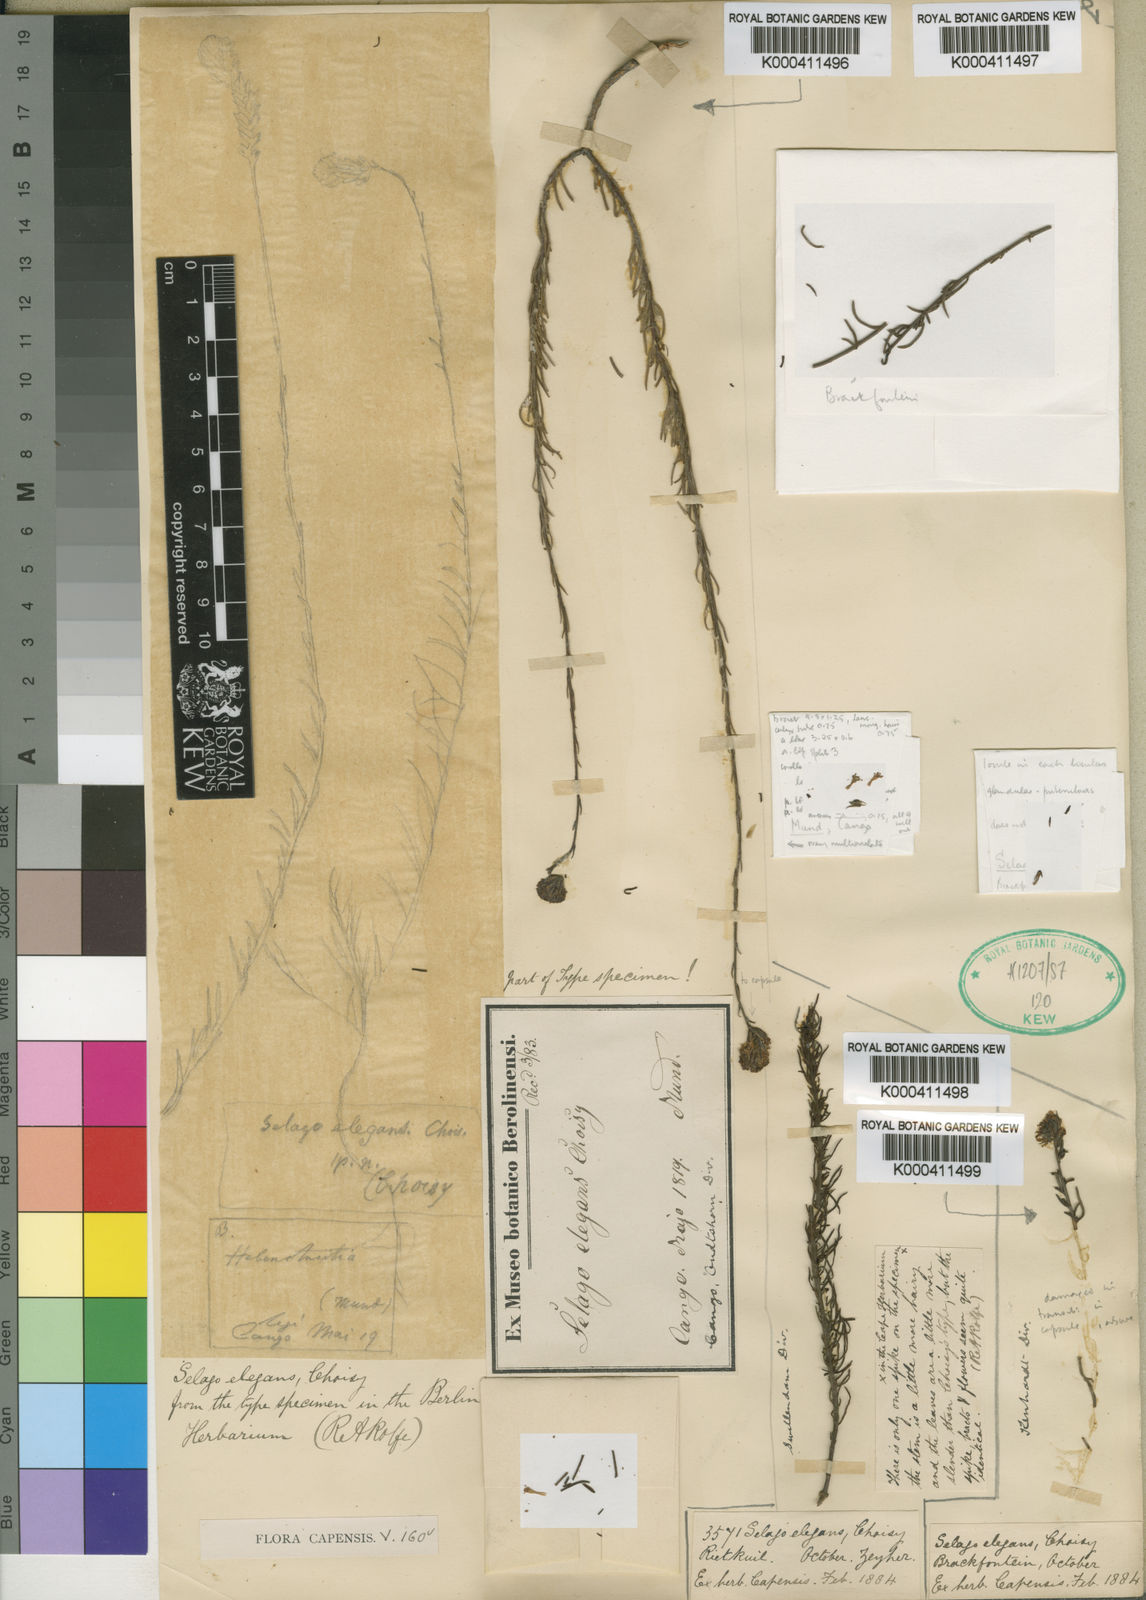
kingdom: Plantae
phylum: Tracheophyta
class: Magnoliopsida
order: Lamiales
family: Scrophulariaceae
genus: Phyllopodium
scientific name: Phyllopodium elegans
